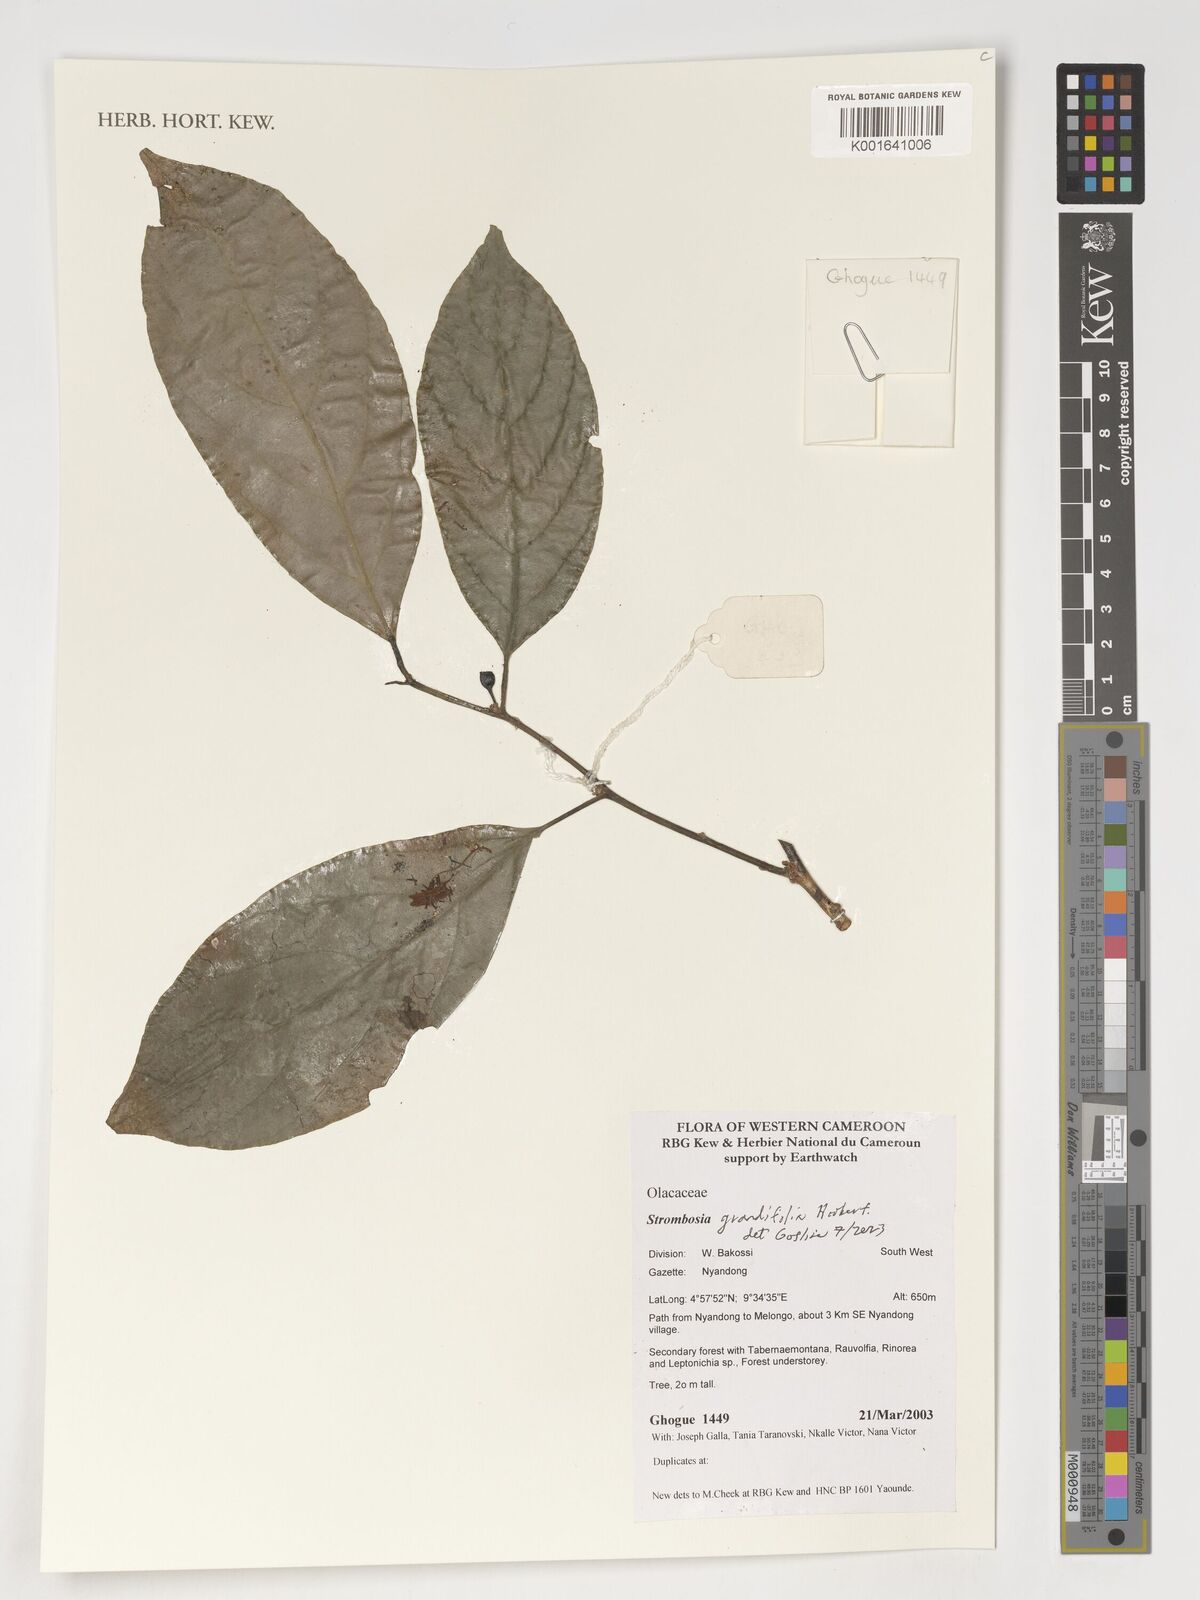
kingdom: Plantae
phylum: Tracheophyta
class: Magnoliopsida
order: Santalales
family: Strombosiaceae
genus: Strombosia
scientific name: Strombosia grandifolia
